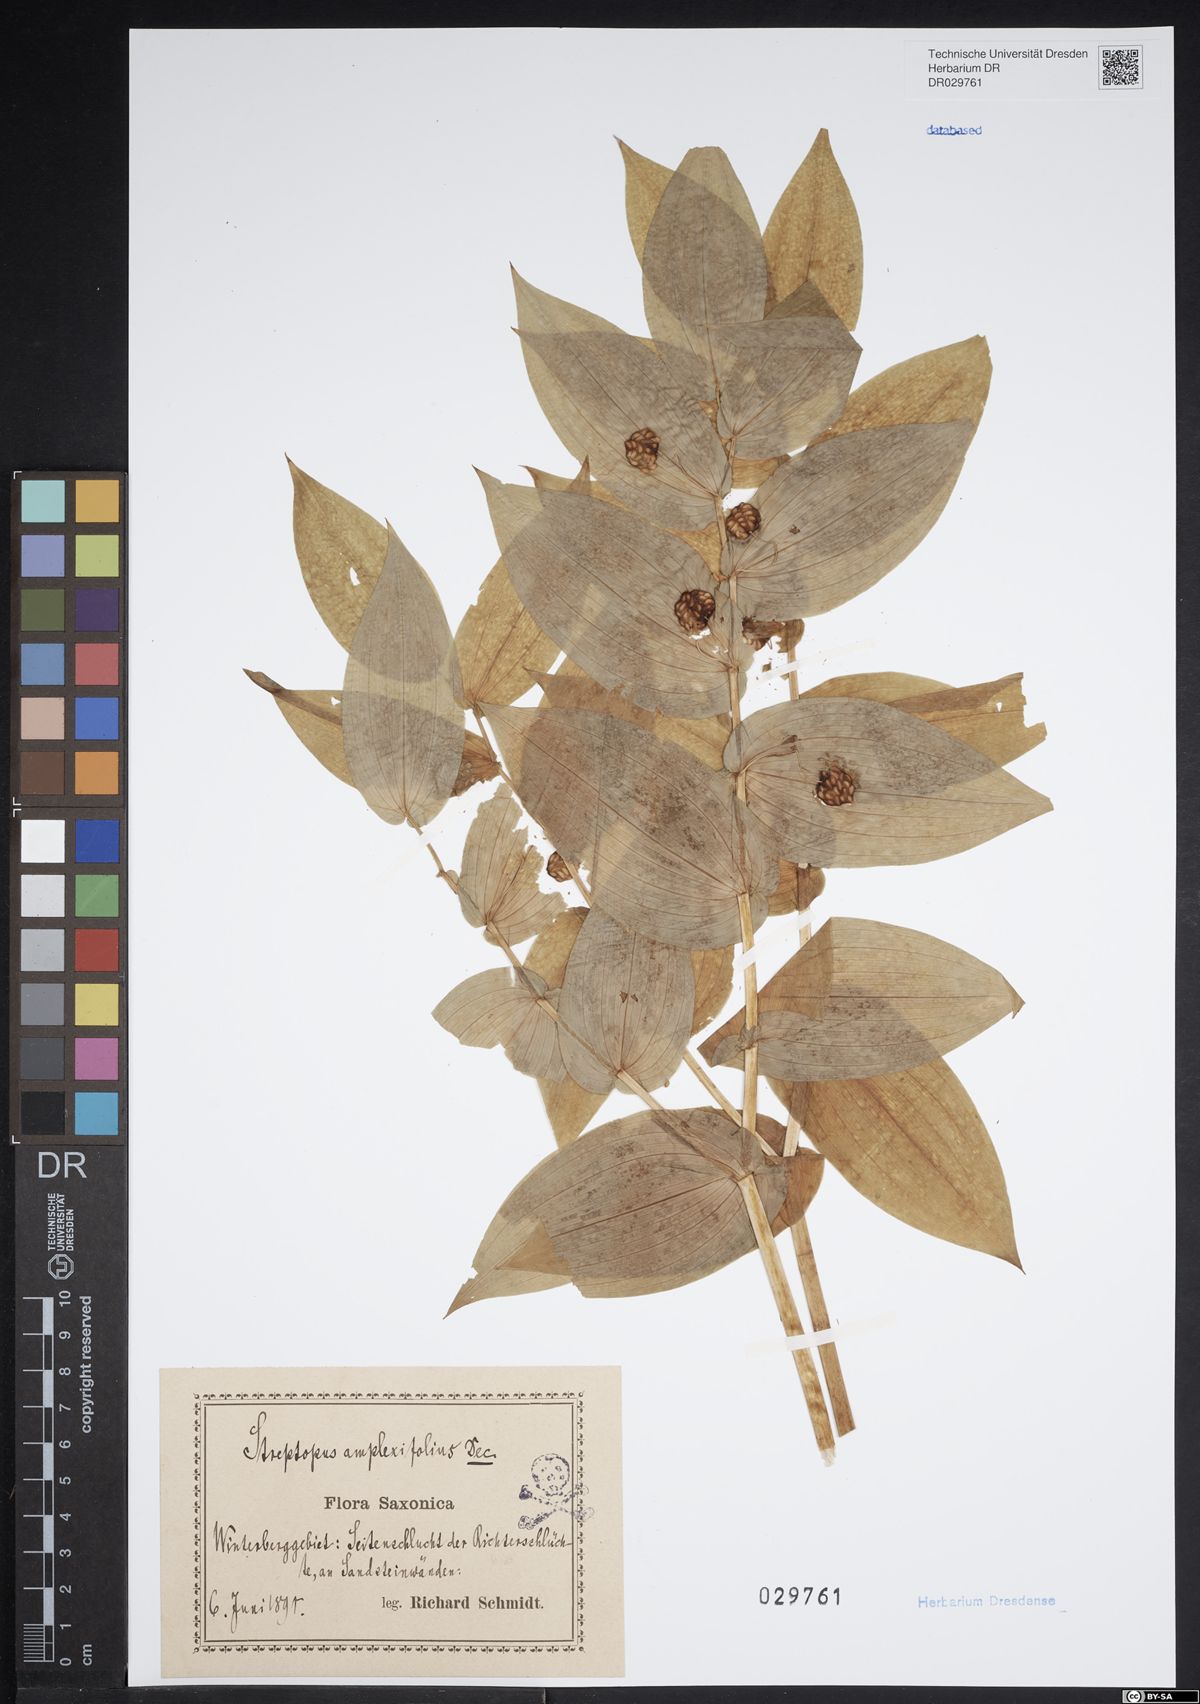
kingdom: Plantae
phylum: Tracheophyta
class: Liliopsida
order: Liliales
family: Liliaceae
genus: Streptopus
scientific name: Streptopus amplexifolius
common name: Clasp twisted stalk
